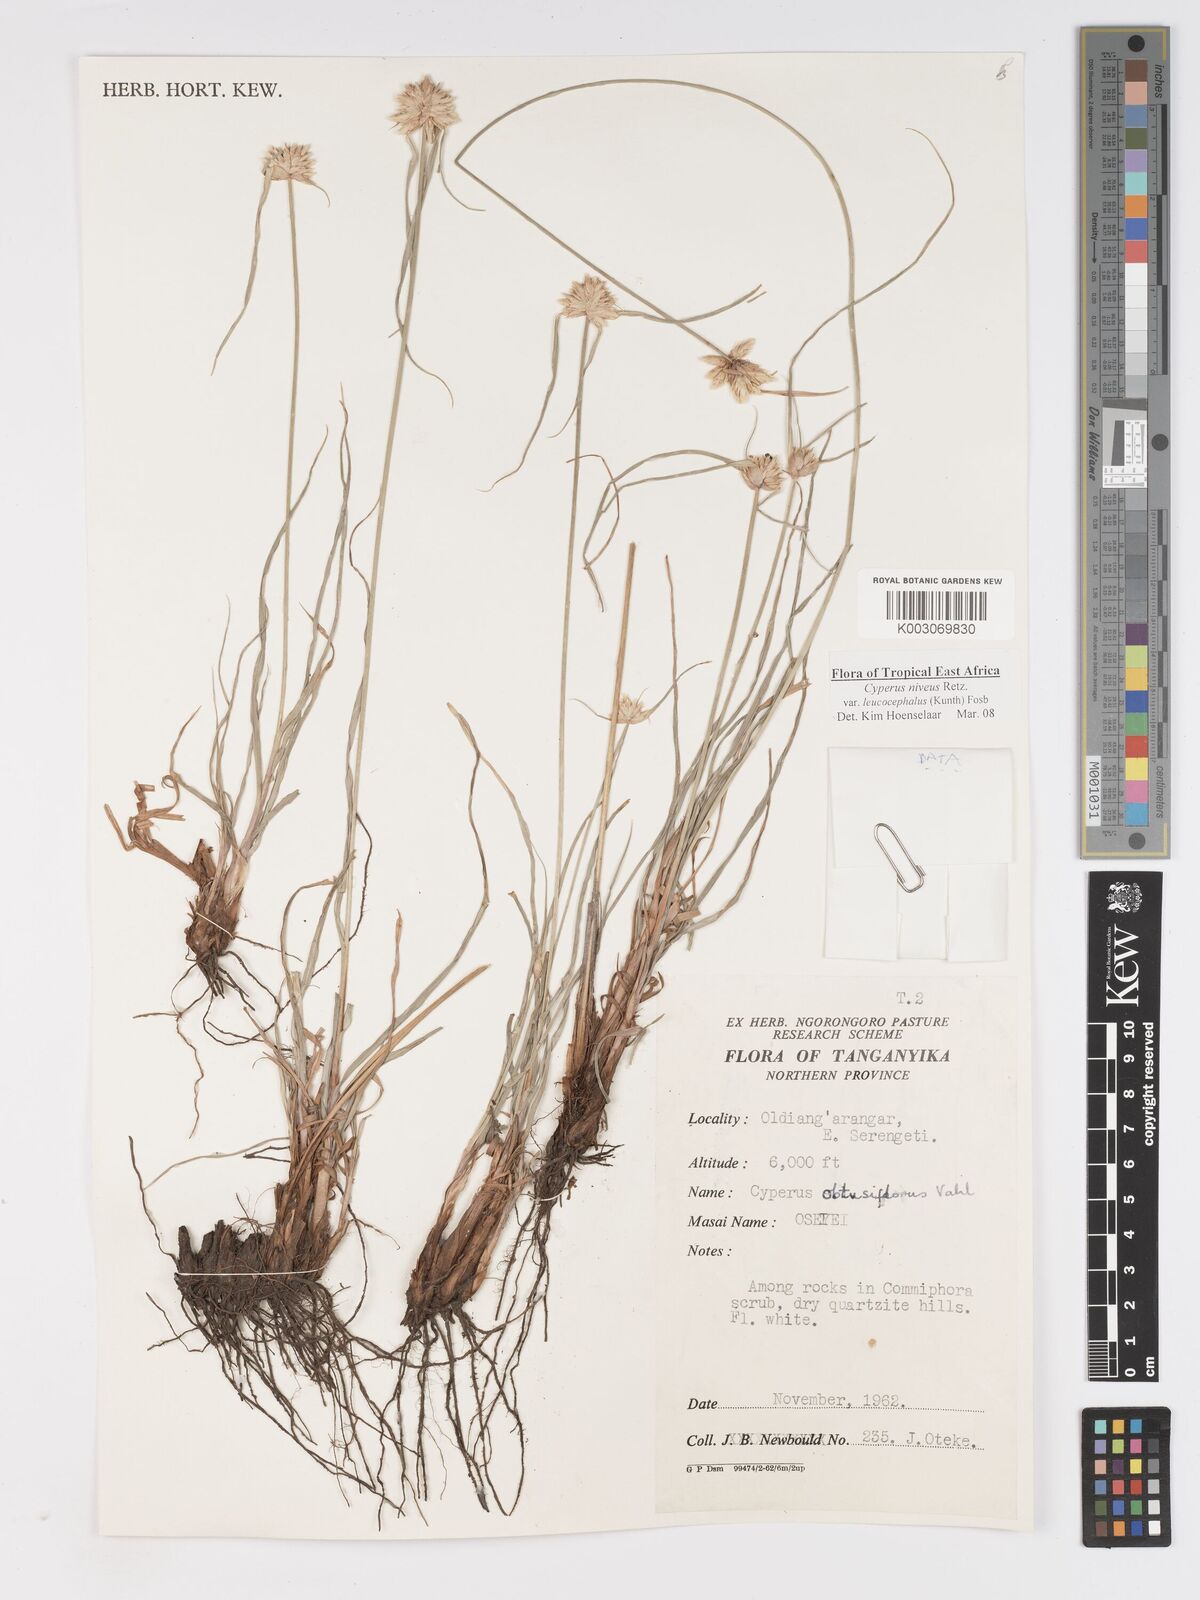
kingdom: Plantae
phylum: Tracheophyta
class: Liliopsida
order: Poales
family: Cyperaceae
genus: Cyperus
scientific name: Cyperus niveus
